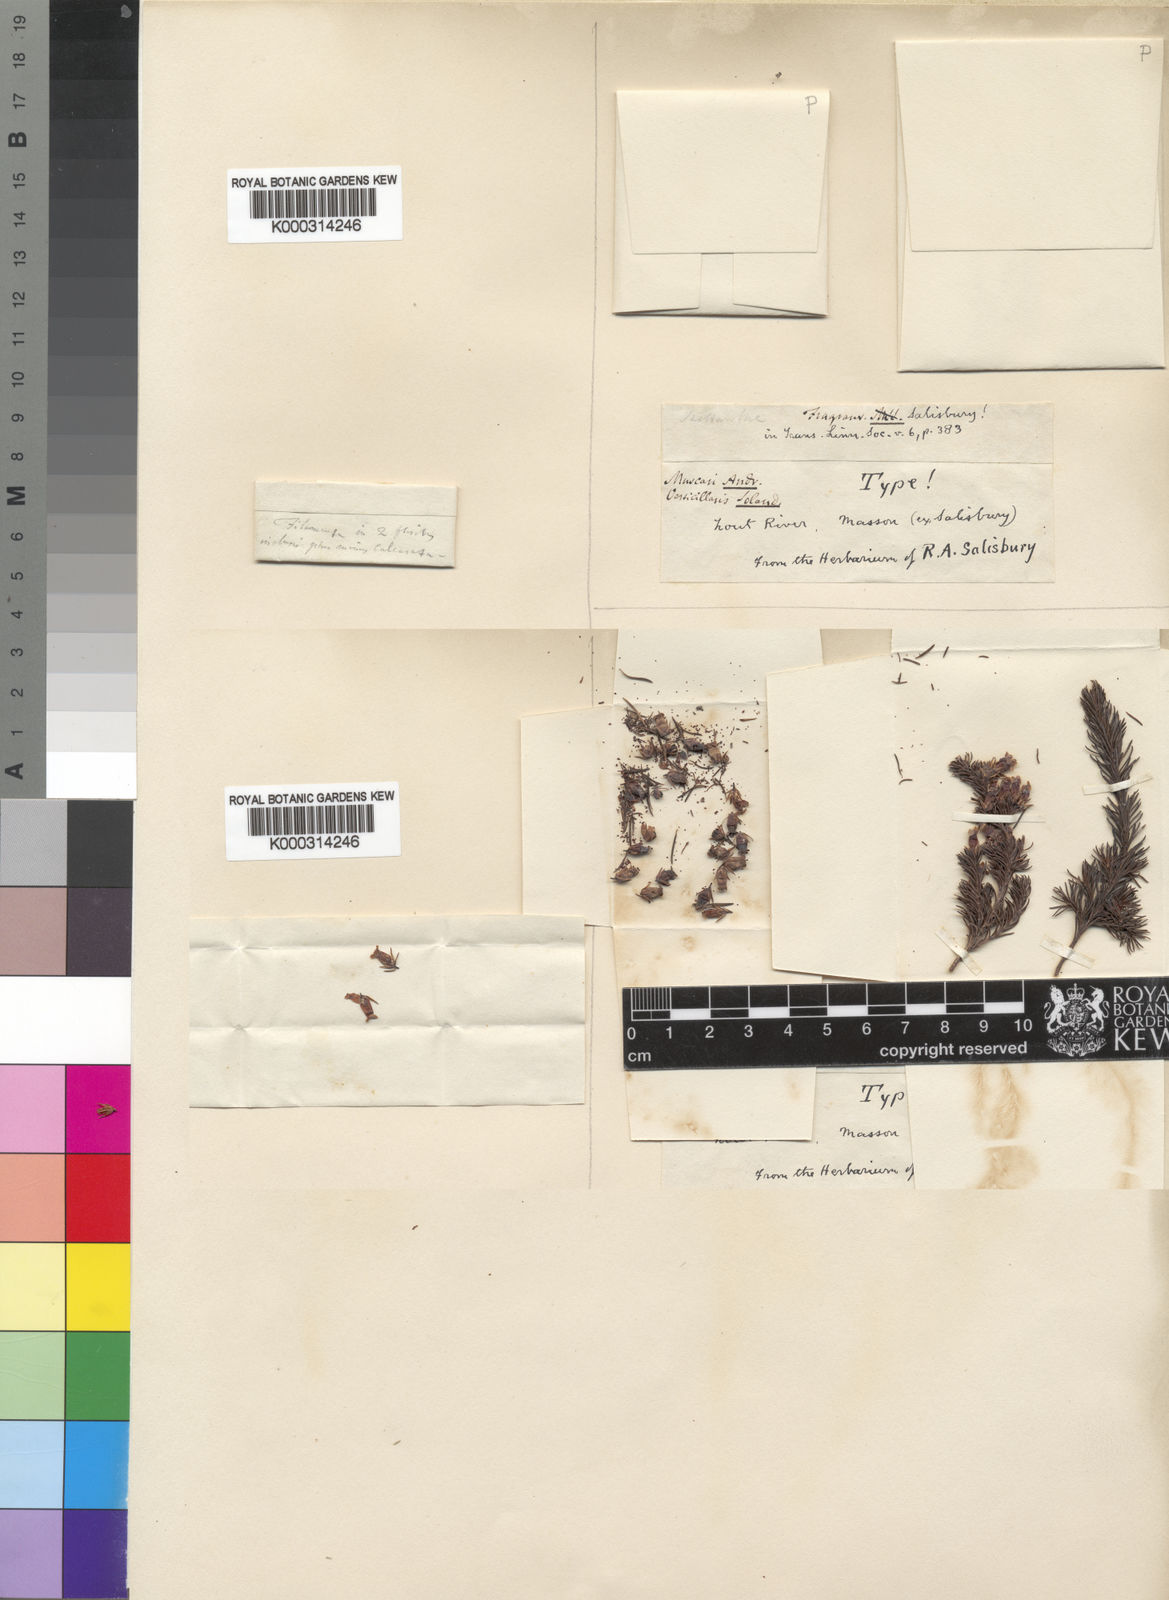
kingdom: Plantae
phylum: Tracheophyta
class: Magnoliopsida
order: Ericales
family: Ericaceae
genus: Erica
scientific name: Erica daphniflora
